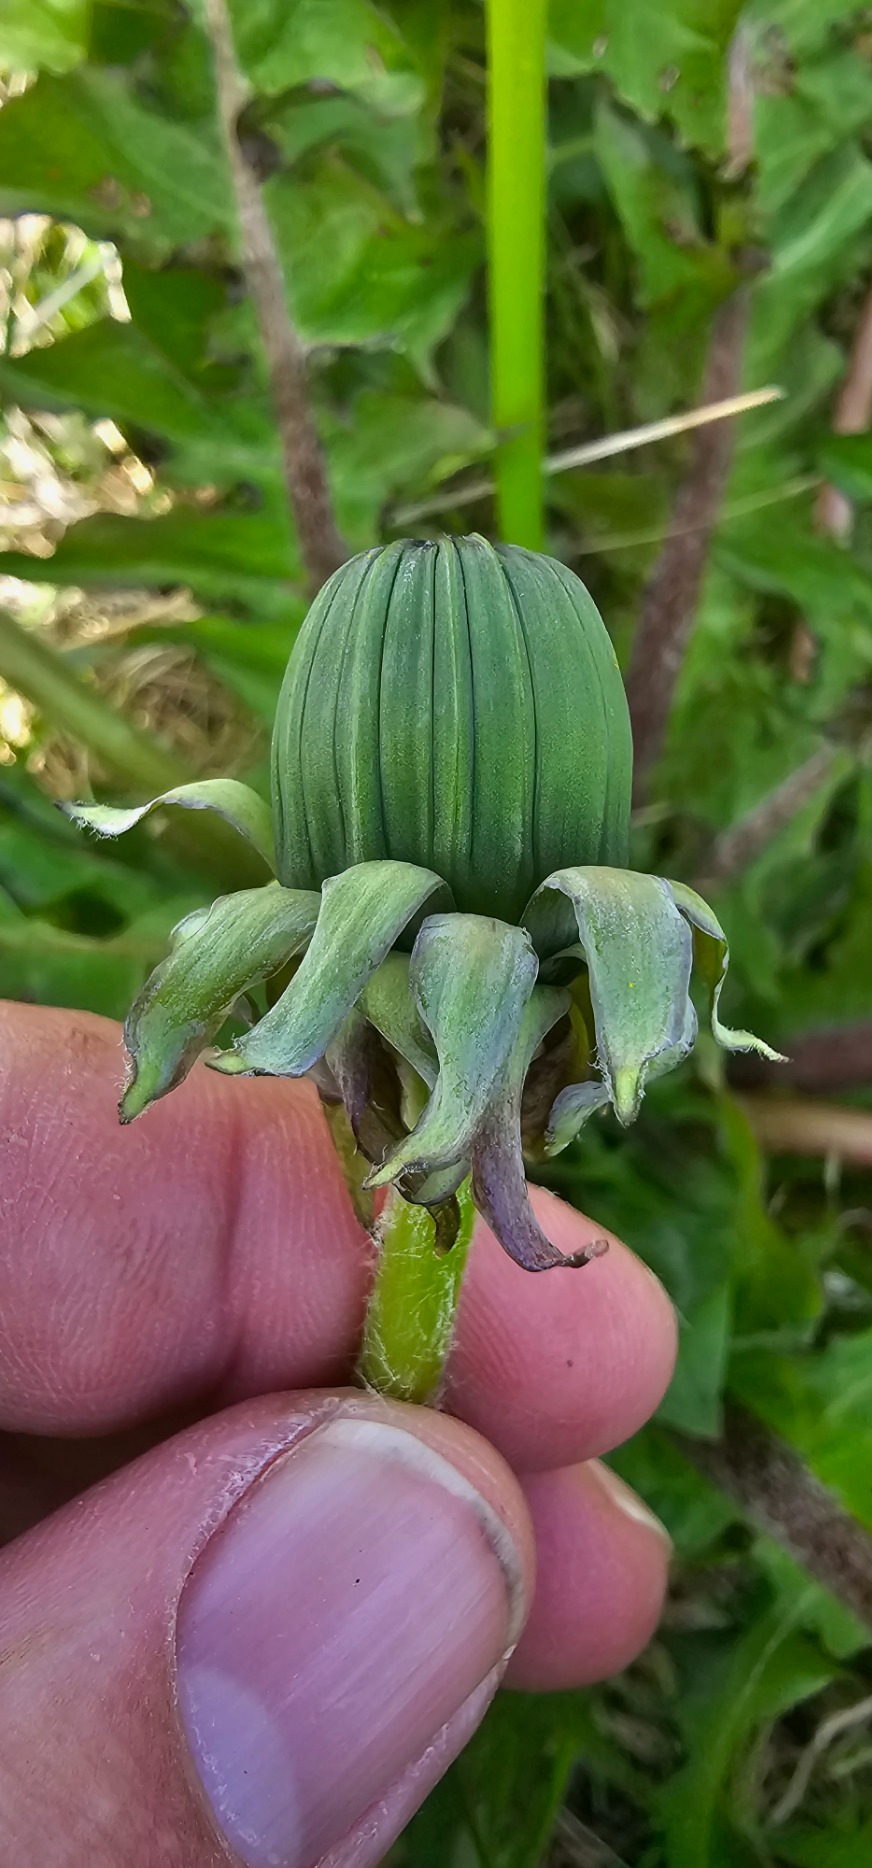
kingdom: Plantae
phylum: Tracheophyta
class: Magnoliopsida
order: Asterales
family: Asteraceae
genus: Taraxacum
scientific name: Taraxacum
